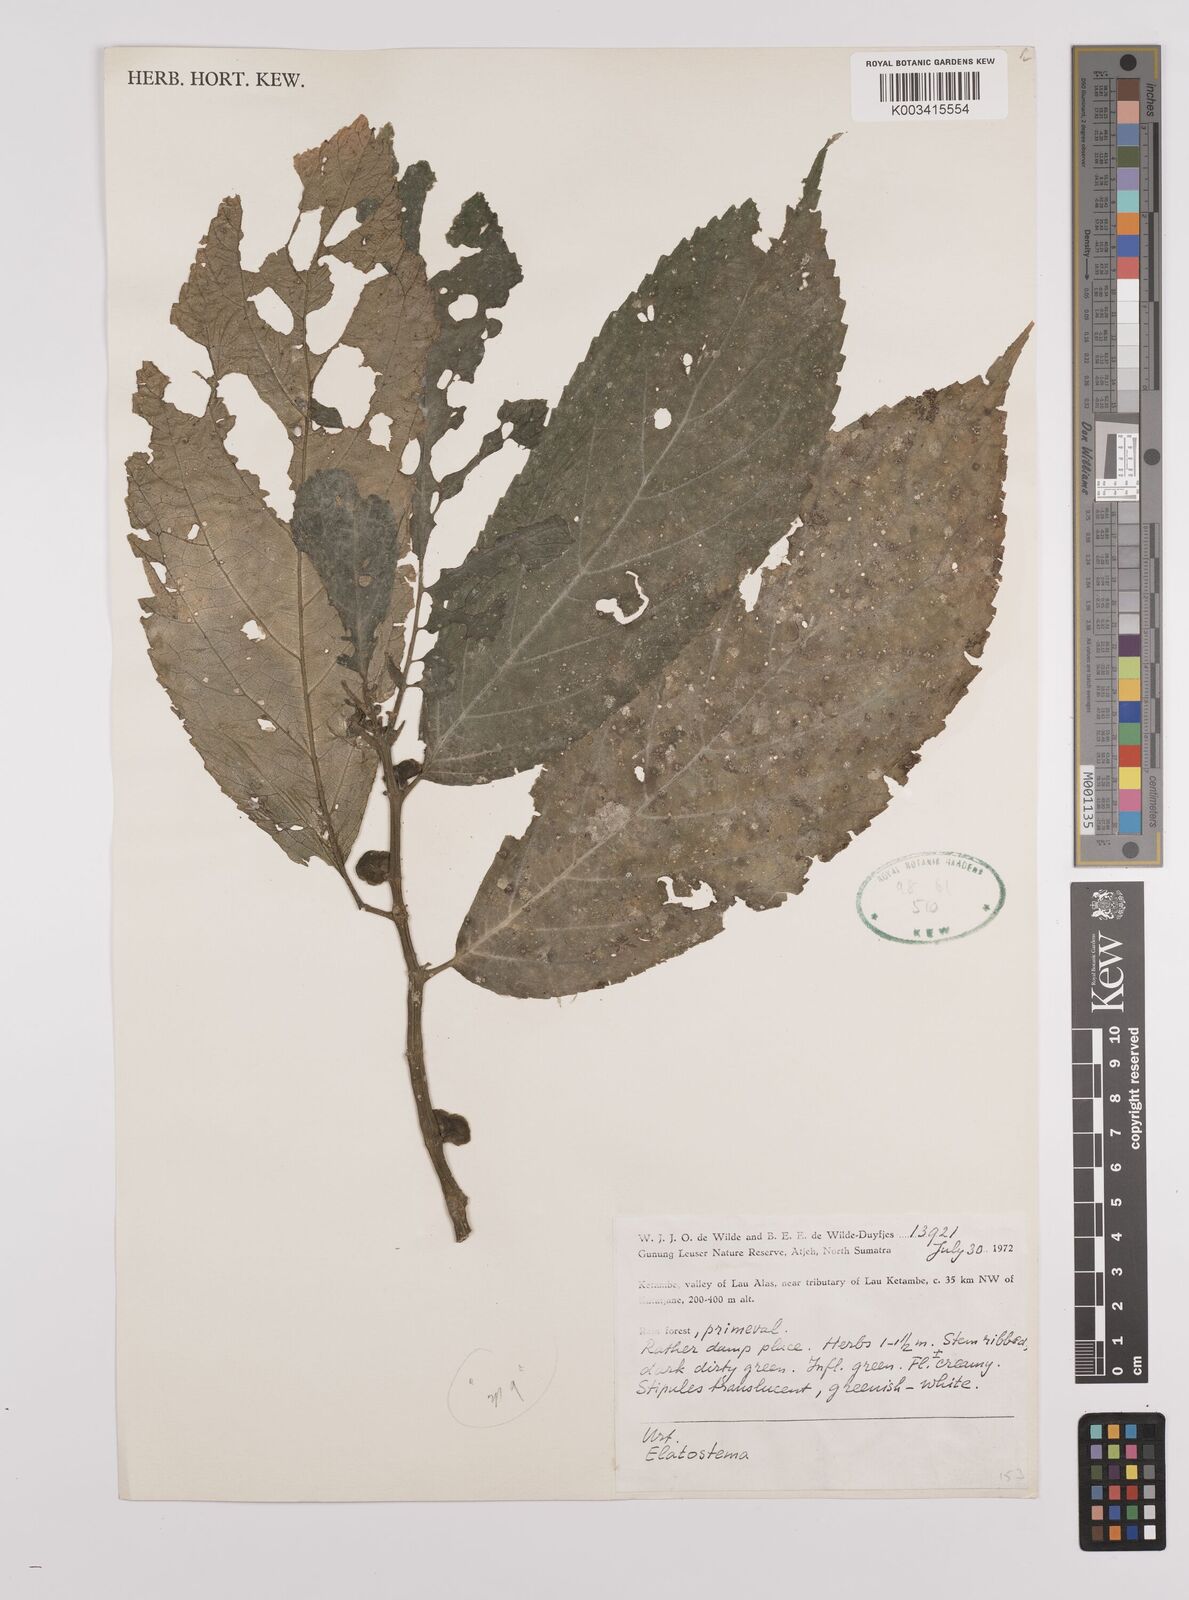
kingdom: Plantae
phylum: Tracheophyta
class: Magnoliopsida
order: Rosales
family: Urticaceae
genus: Elatostema
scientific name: Elatostema
